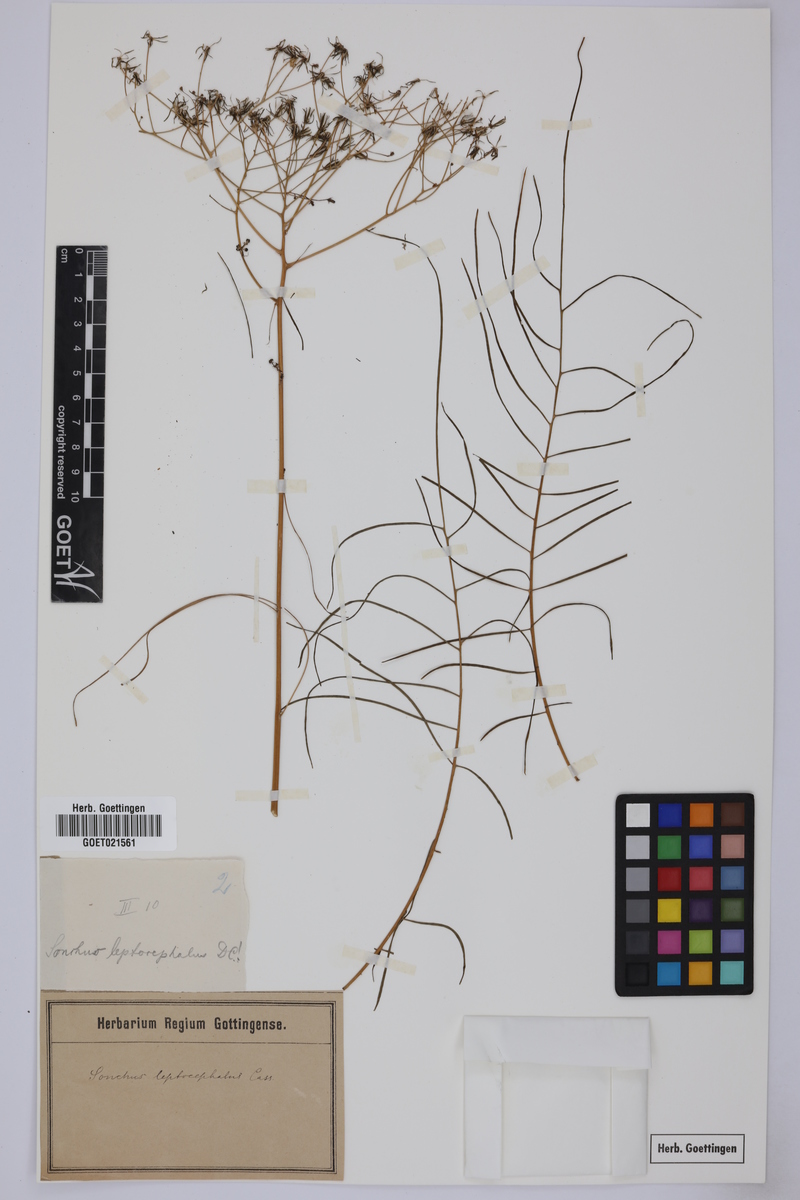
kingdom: Plantae
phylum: Tracheophyta
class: Magnoliopsida
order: Asterales
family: Asteraceae
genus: Sonchus
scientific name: Sonchus leptocephalus
